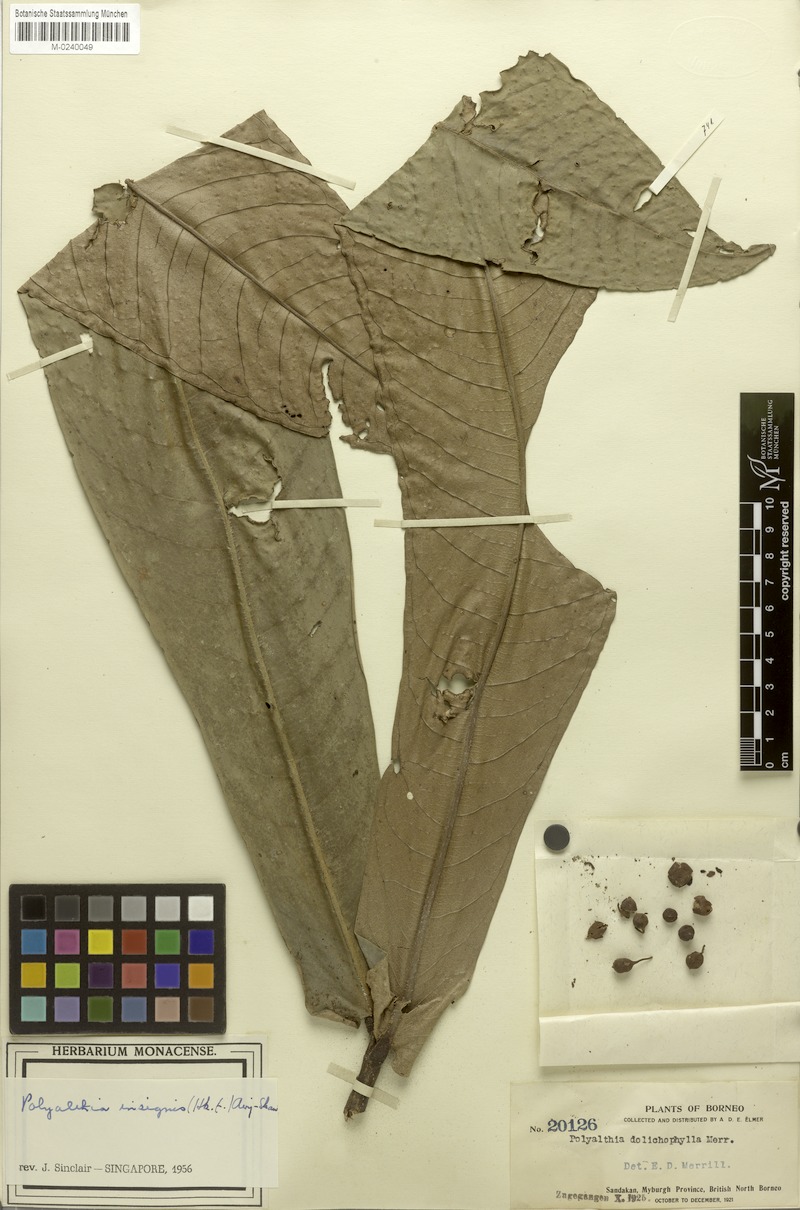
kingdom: Plantae
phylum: Tracheophyta
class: Magnoliopsida
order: Magnoliales
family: Annonaceae
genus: Polyalthia
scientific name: Polyalthia insignis
